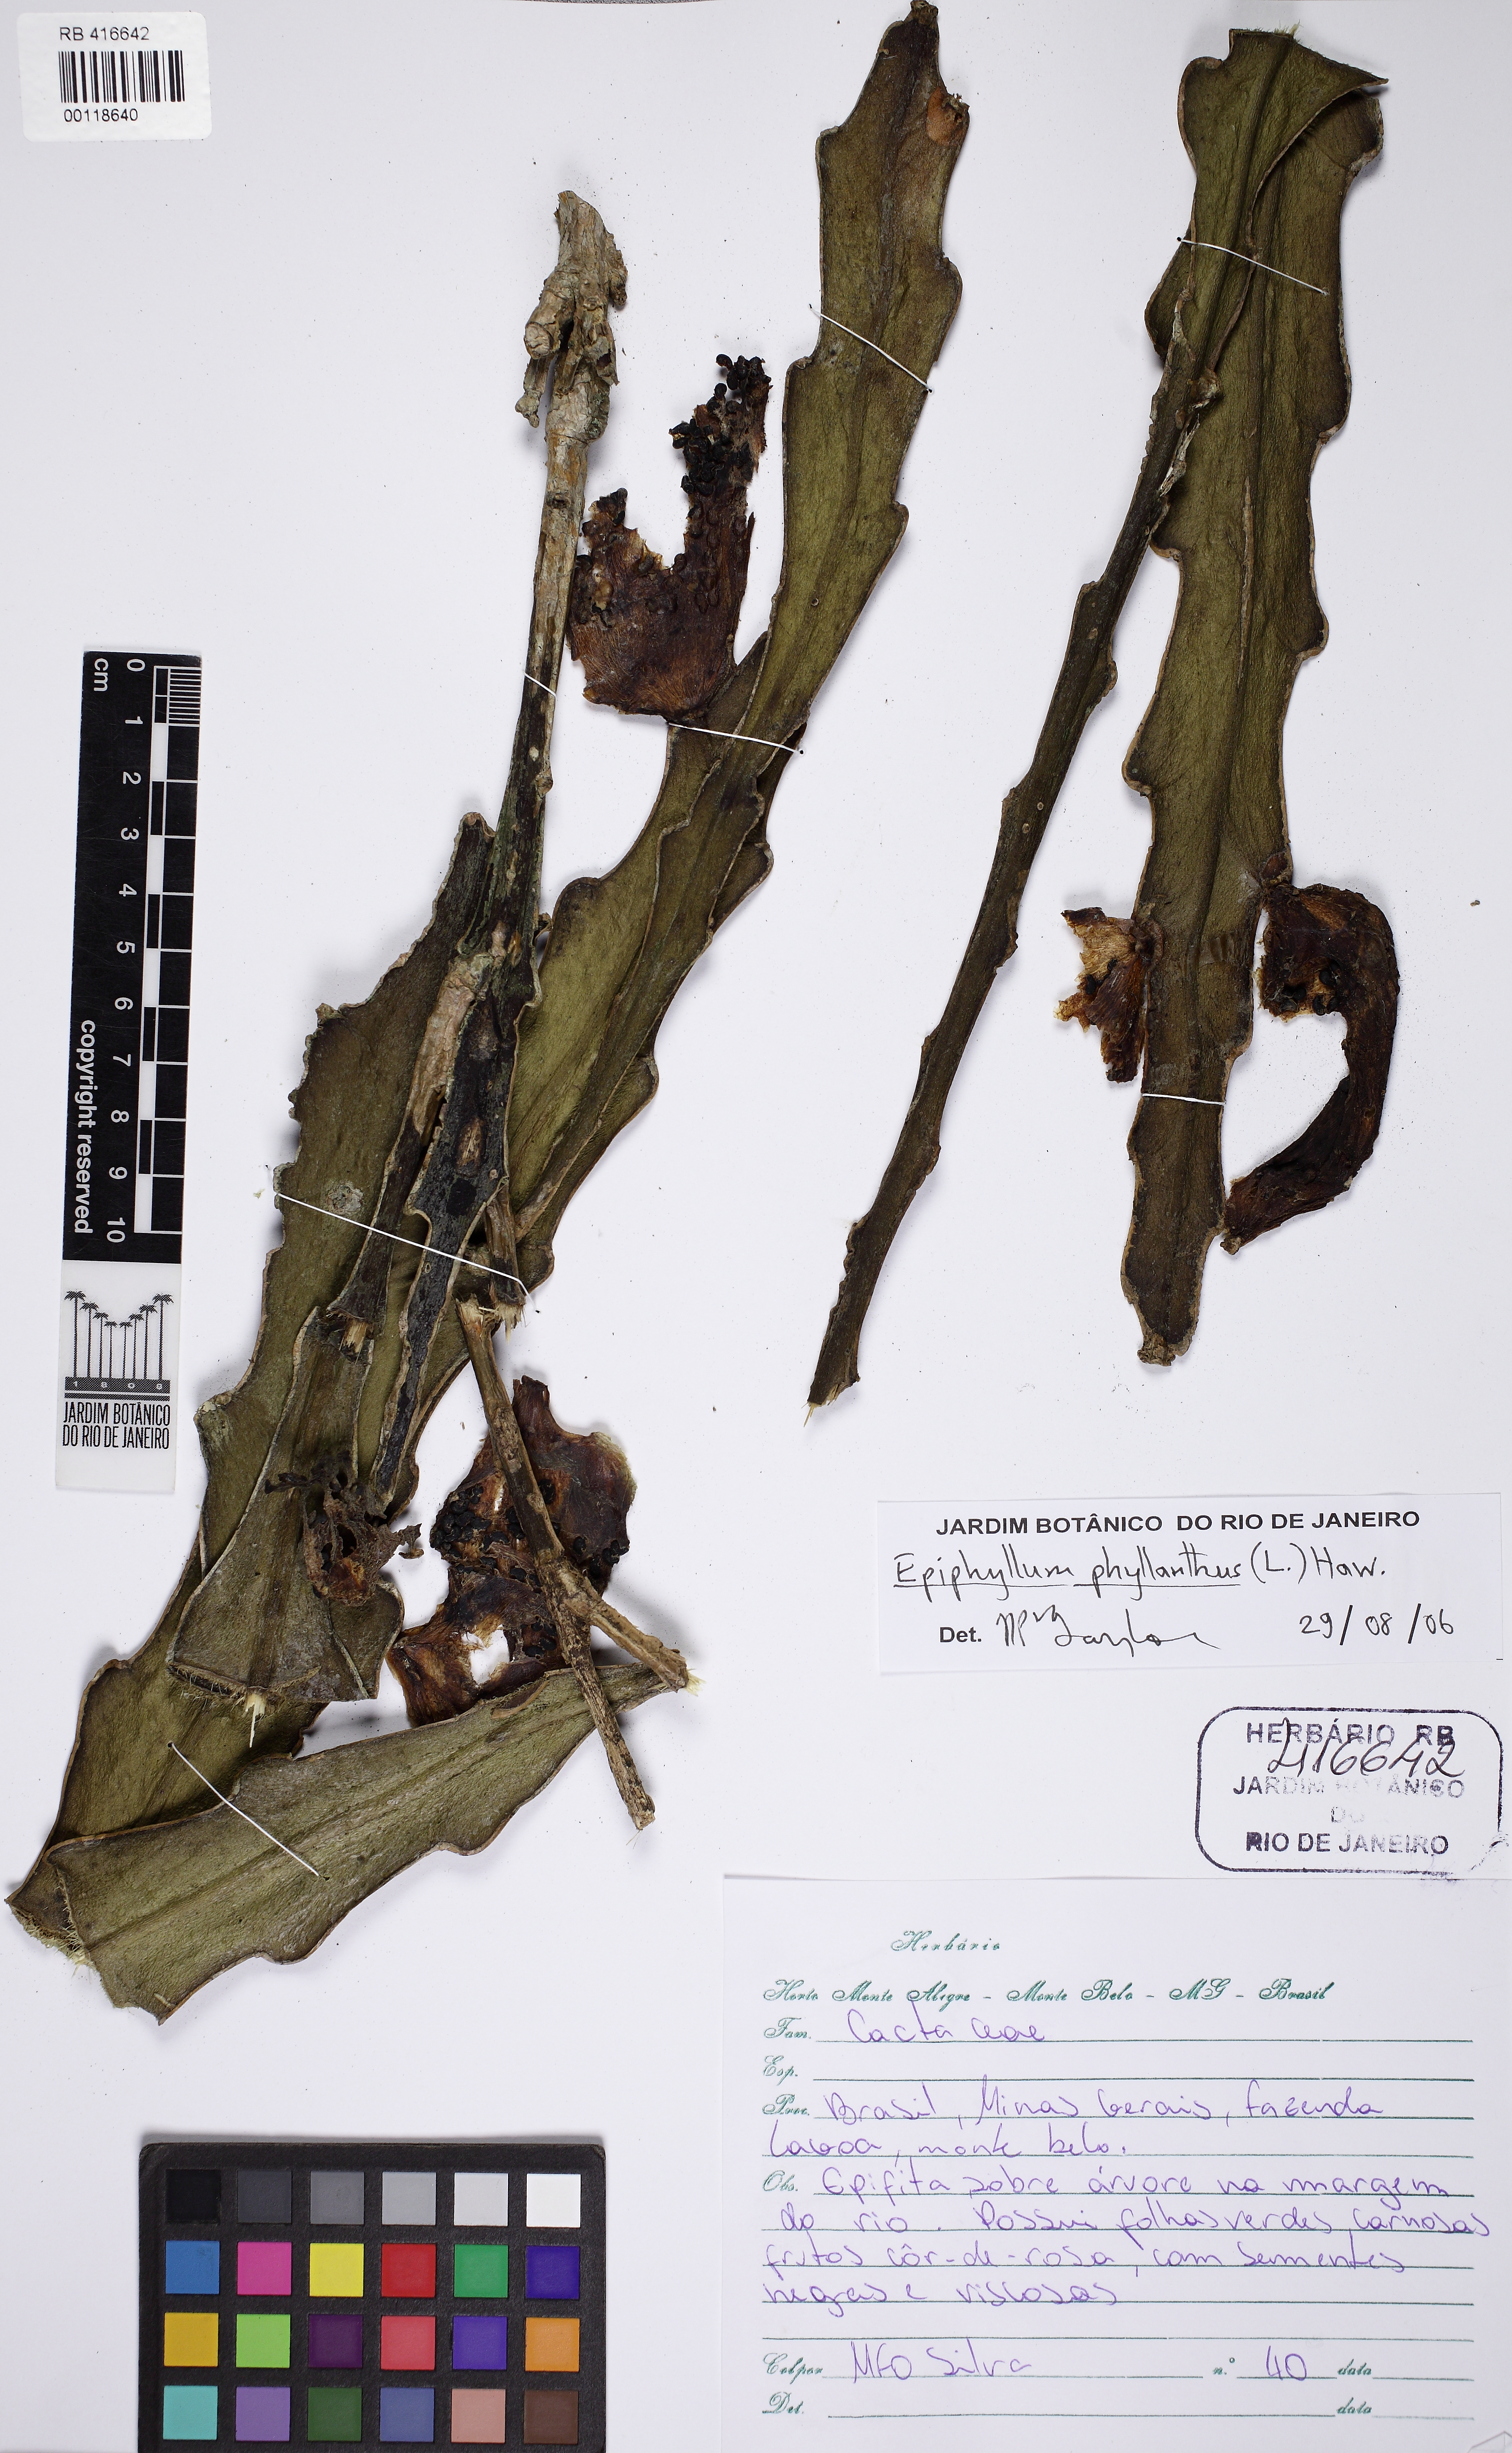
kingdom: Plantae
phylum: Tracheophyta
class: Magnoliopsida
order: Caryophyllales
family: Cactaceae
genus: Epiphyllum
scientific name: Epiphyllum phyllanthus
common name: Climbing cactus
